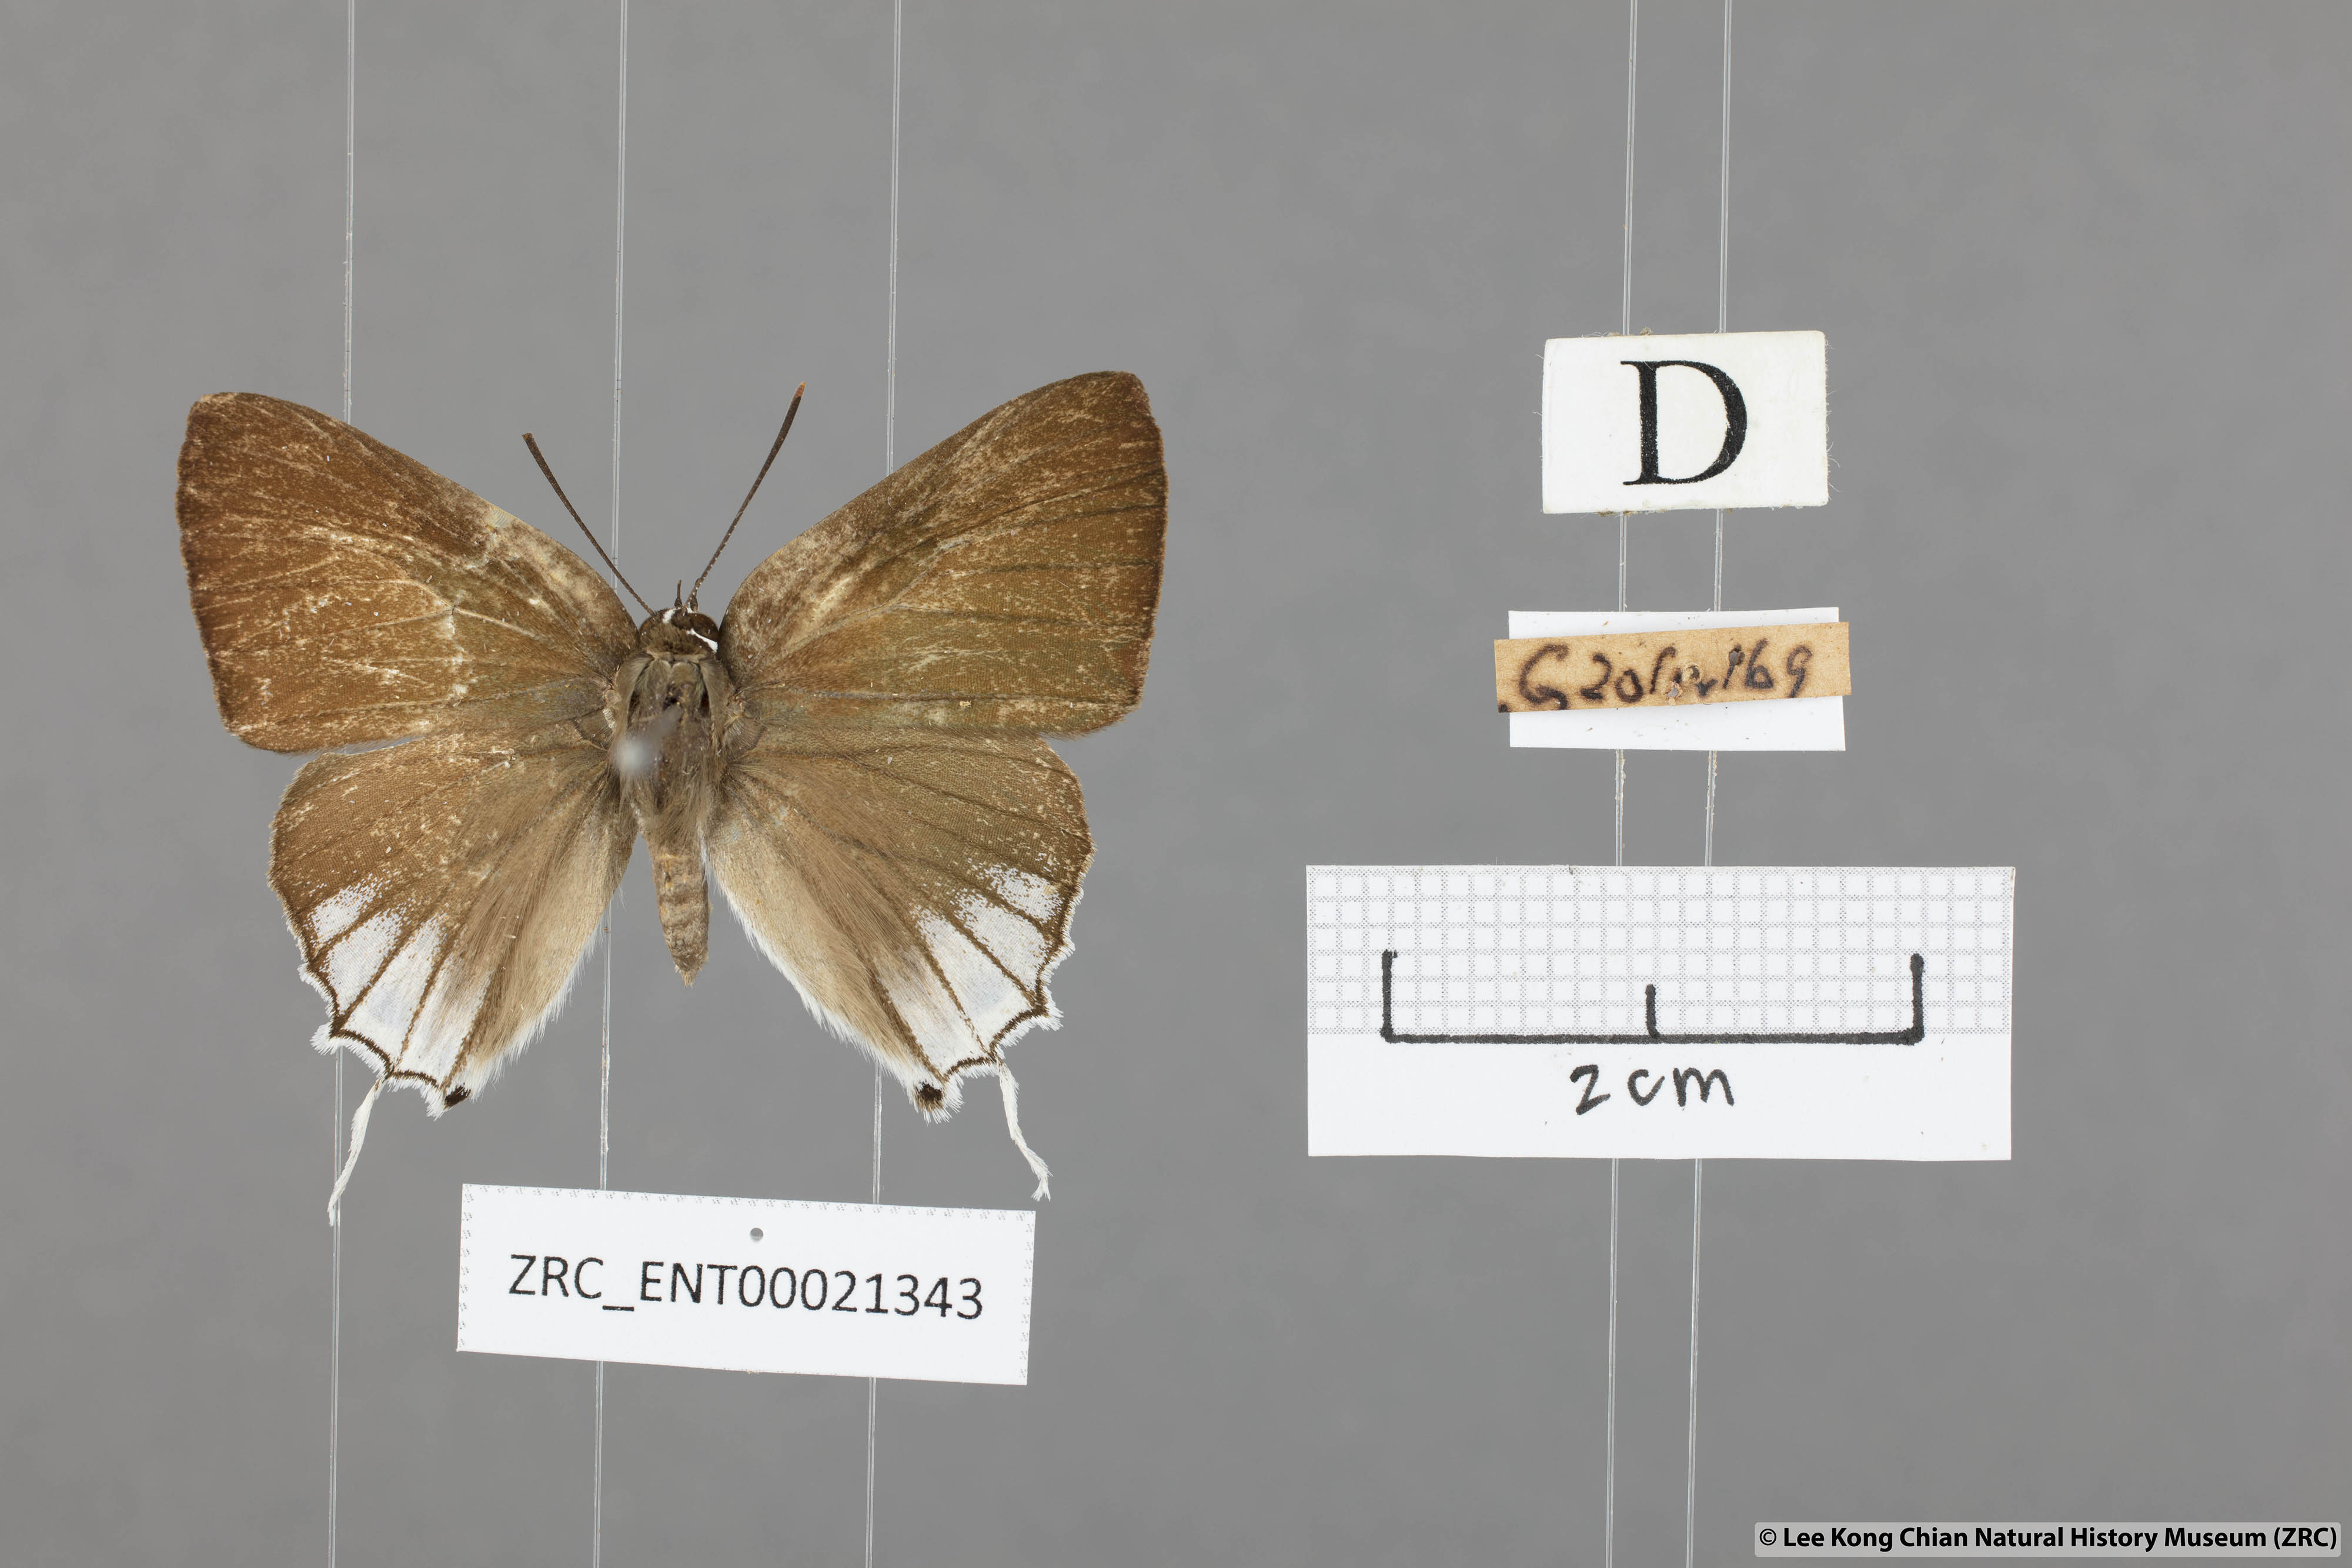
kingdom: Animalia
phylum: Arthropoda
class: Insecta
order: Lepidoptera
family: Lycaenidae
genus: Deudorix
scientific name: Deudorix
